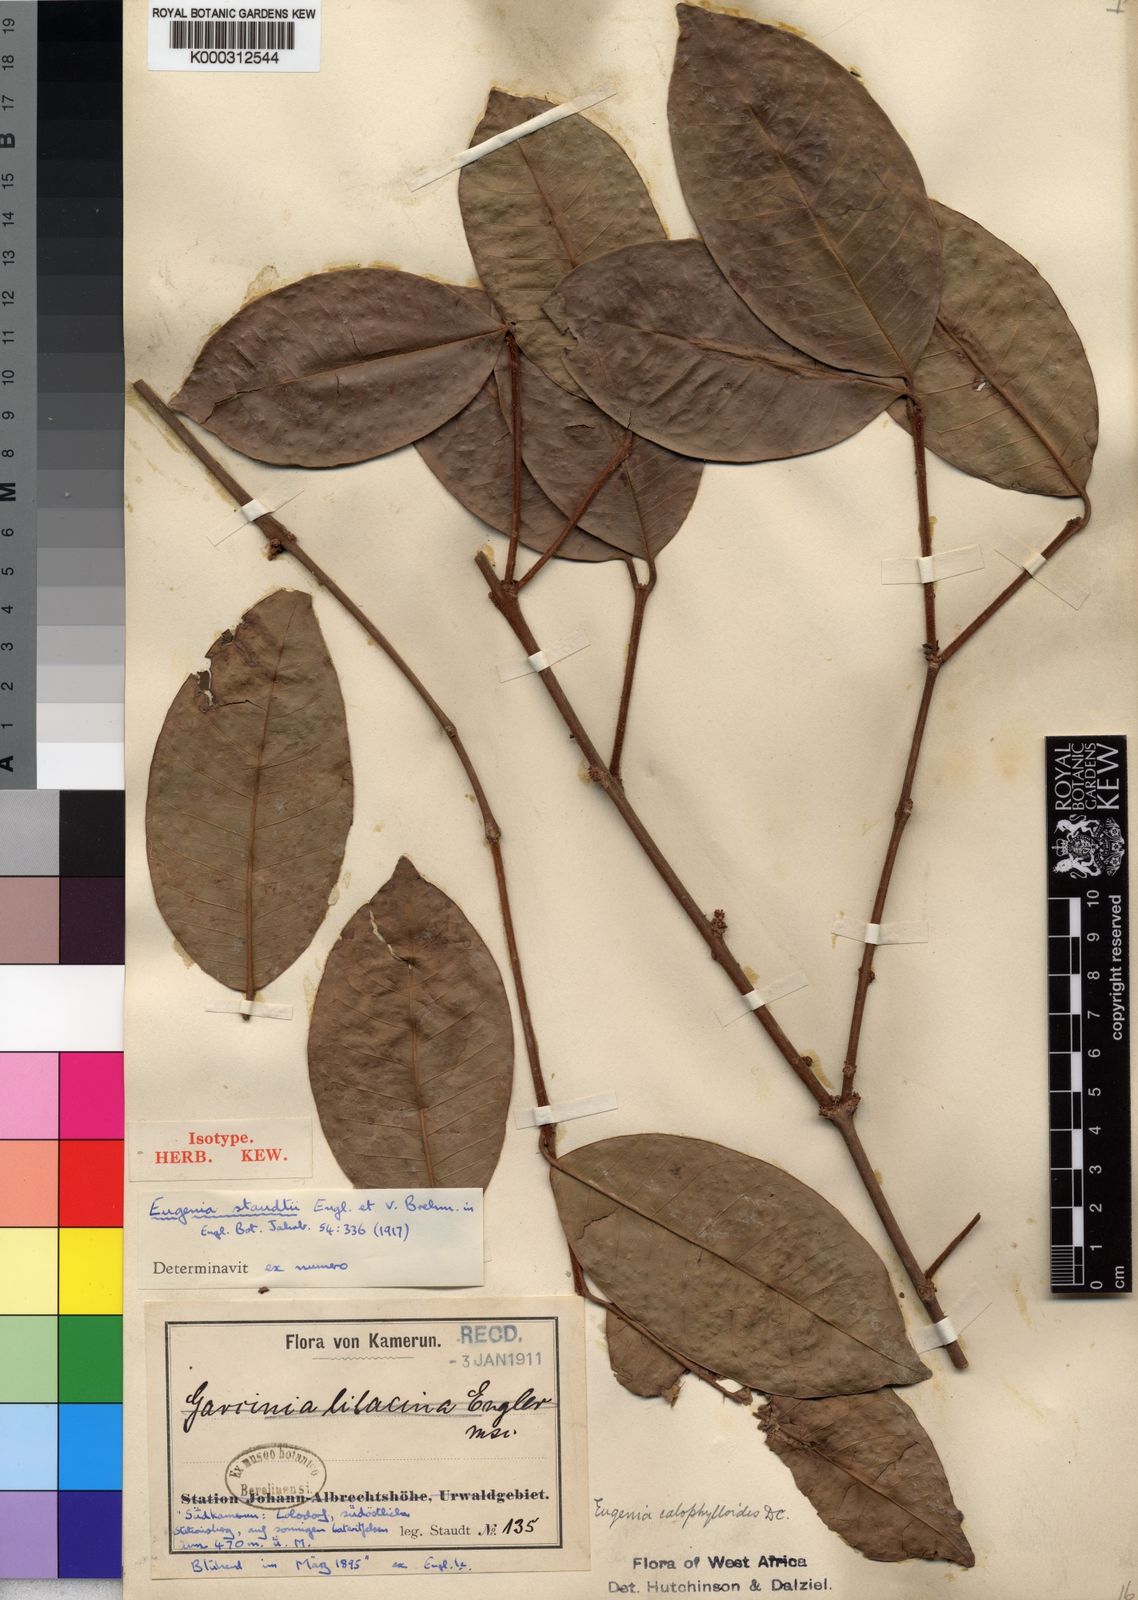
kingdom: Plantae
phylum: Tracheophyta
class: Magnoliopsida
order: Myrtales
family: Myrtaceae
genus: Eugenia
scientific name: Eugenia staudtii
